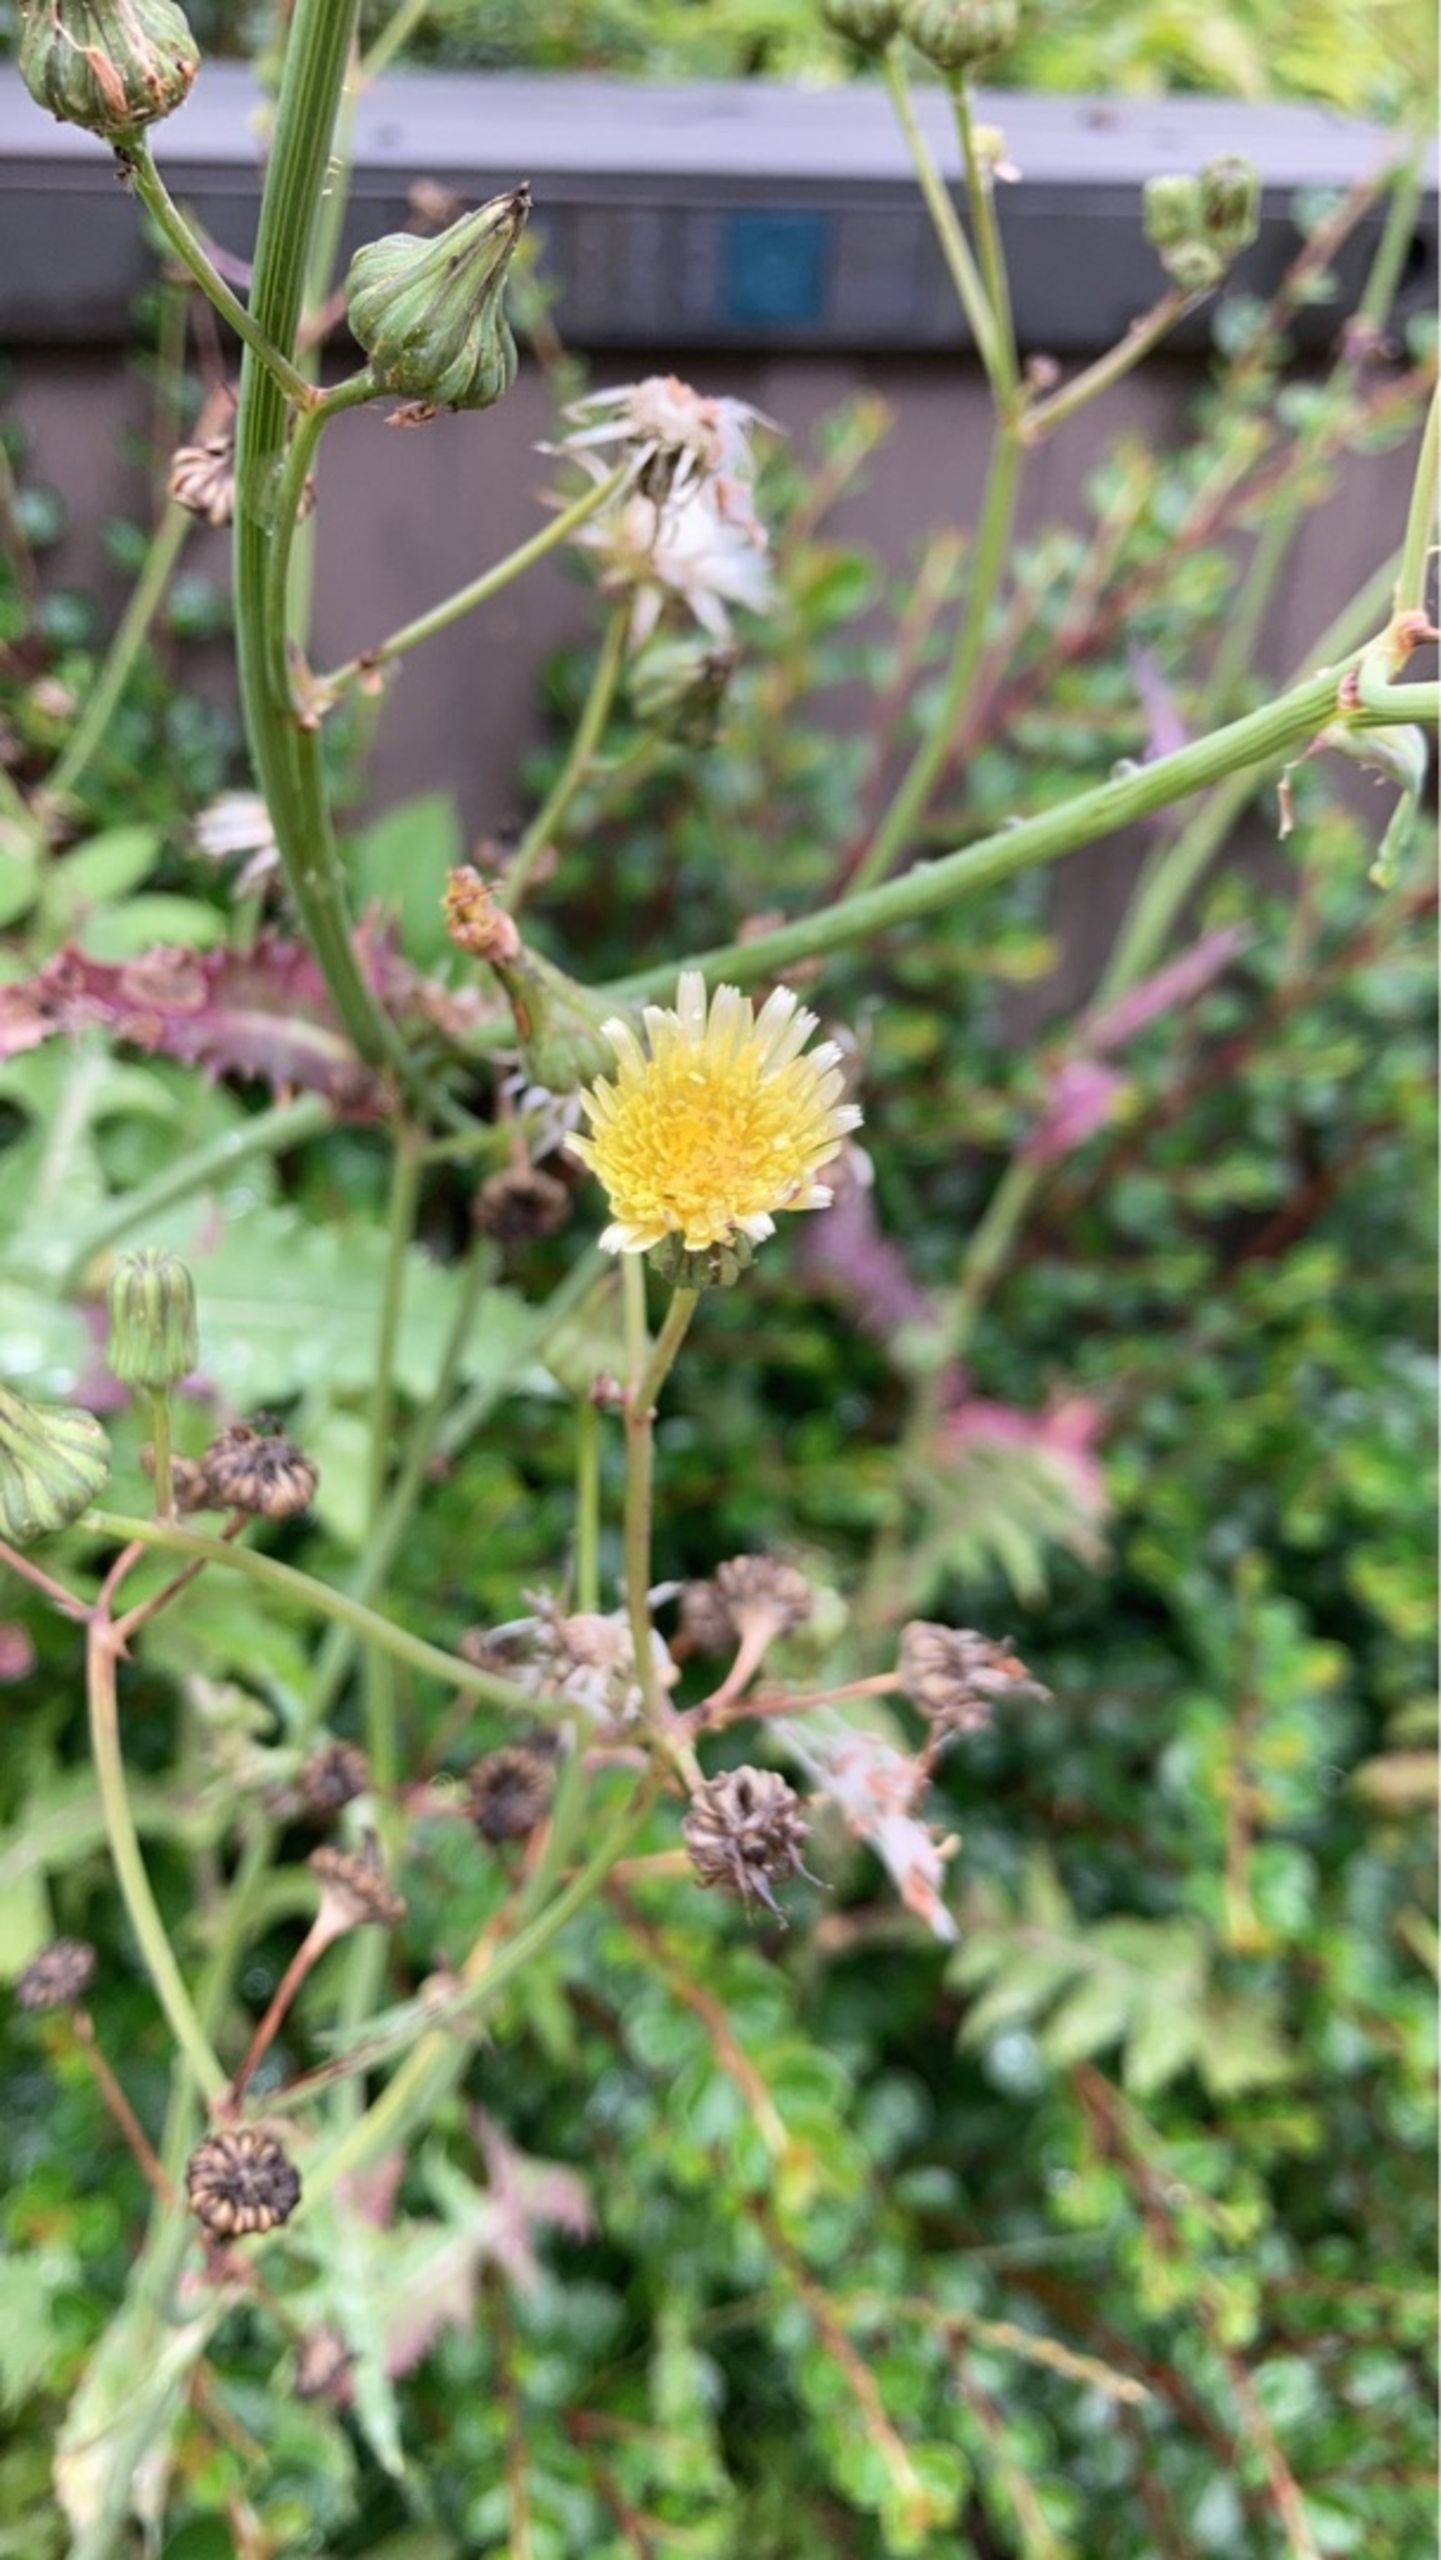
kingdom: Plantae
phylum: Tracheophyta
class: Magnoliopsida
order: Asterales
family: Asteraceae
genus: Sonchus
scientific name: Sonchus oleraceus
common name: Almindelig svinemælk
